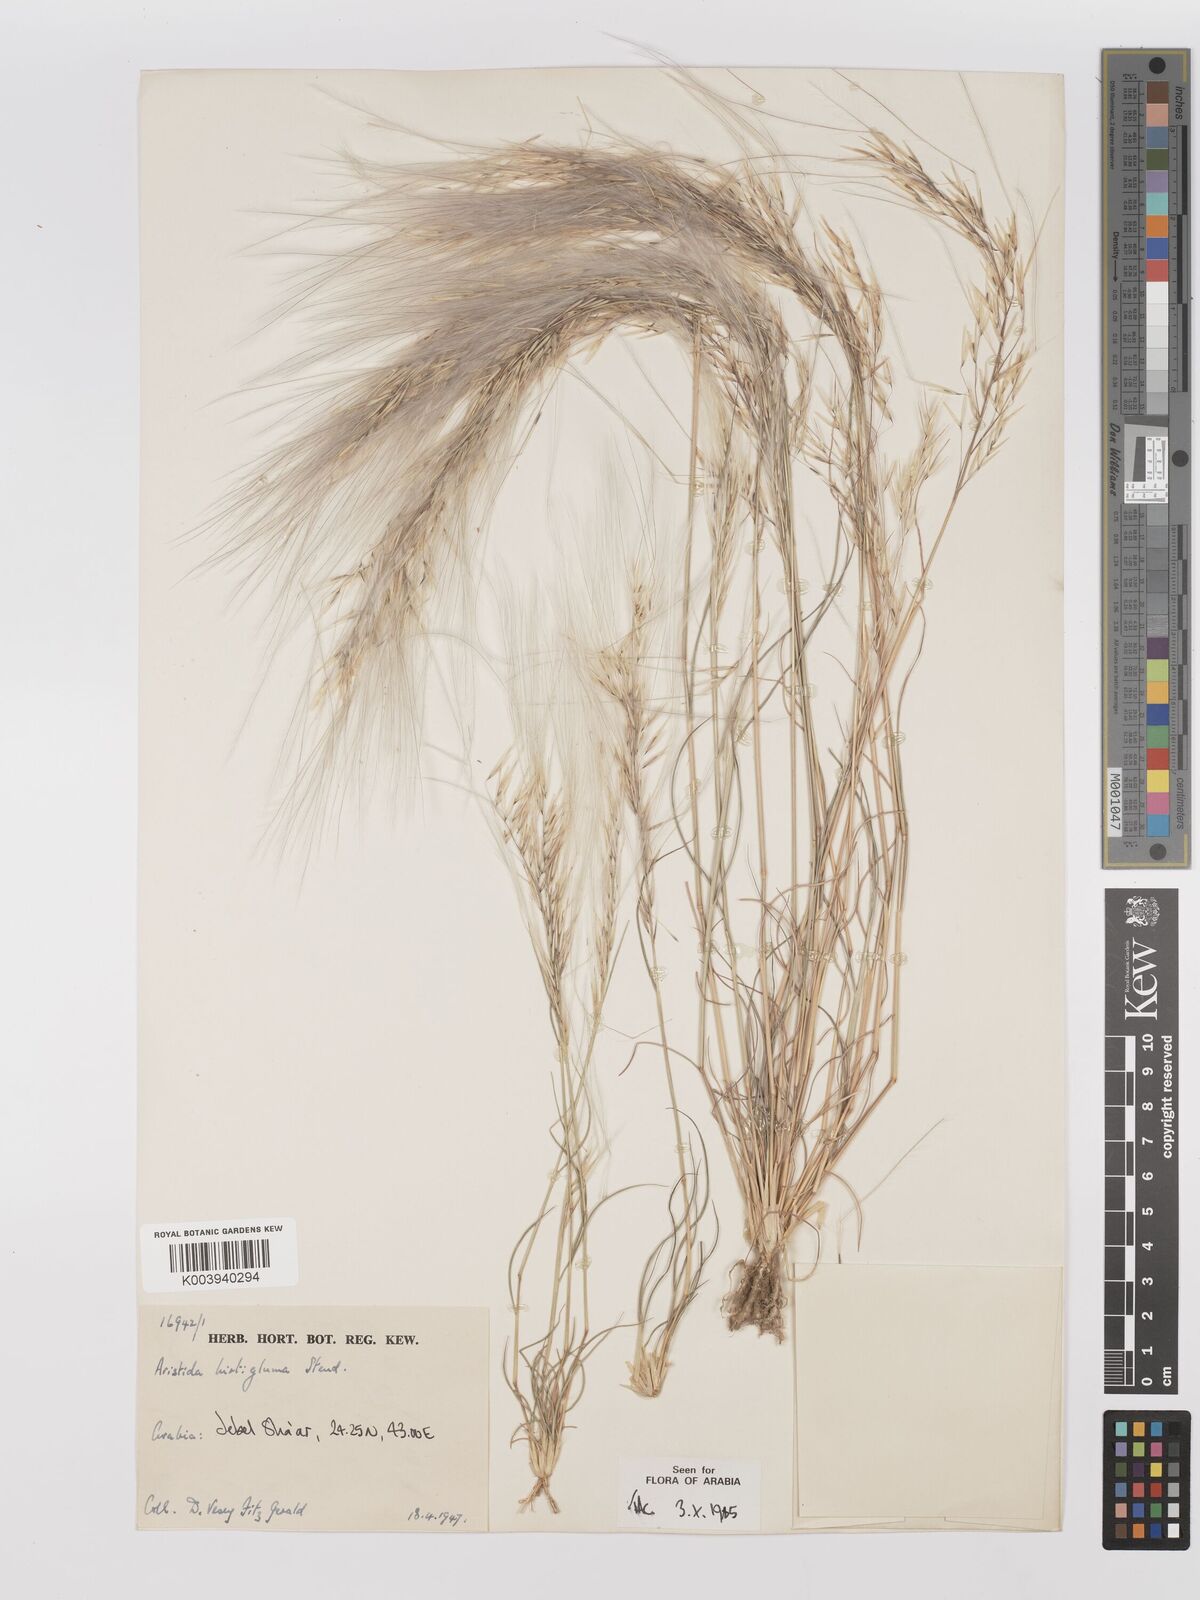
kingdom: Plantae
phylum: Tracheophyta
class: Liliopsida
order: Poales
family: Poaceae
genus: Stipagrostis
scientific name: Stipagrostis hirtigluma
